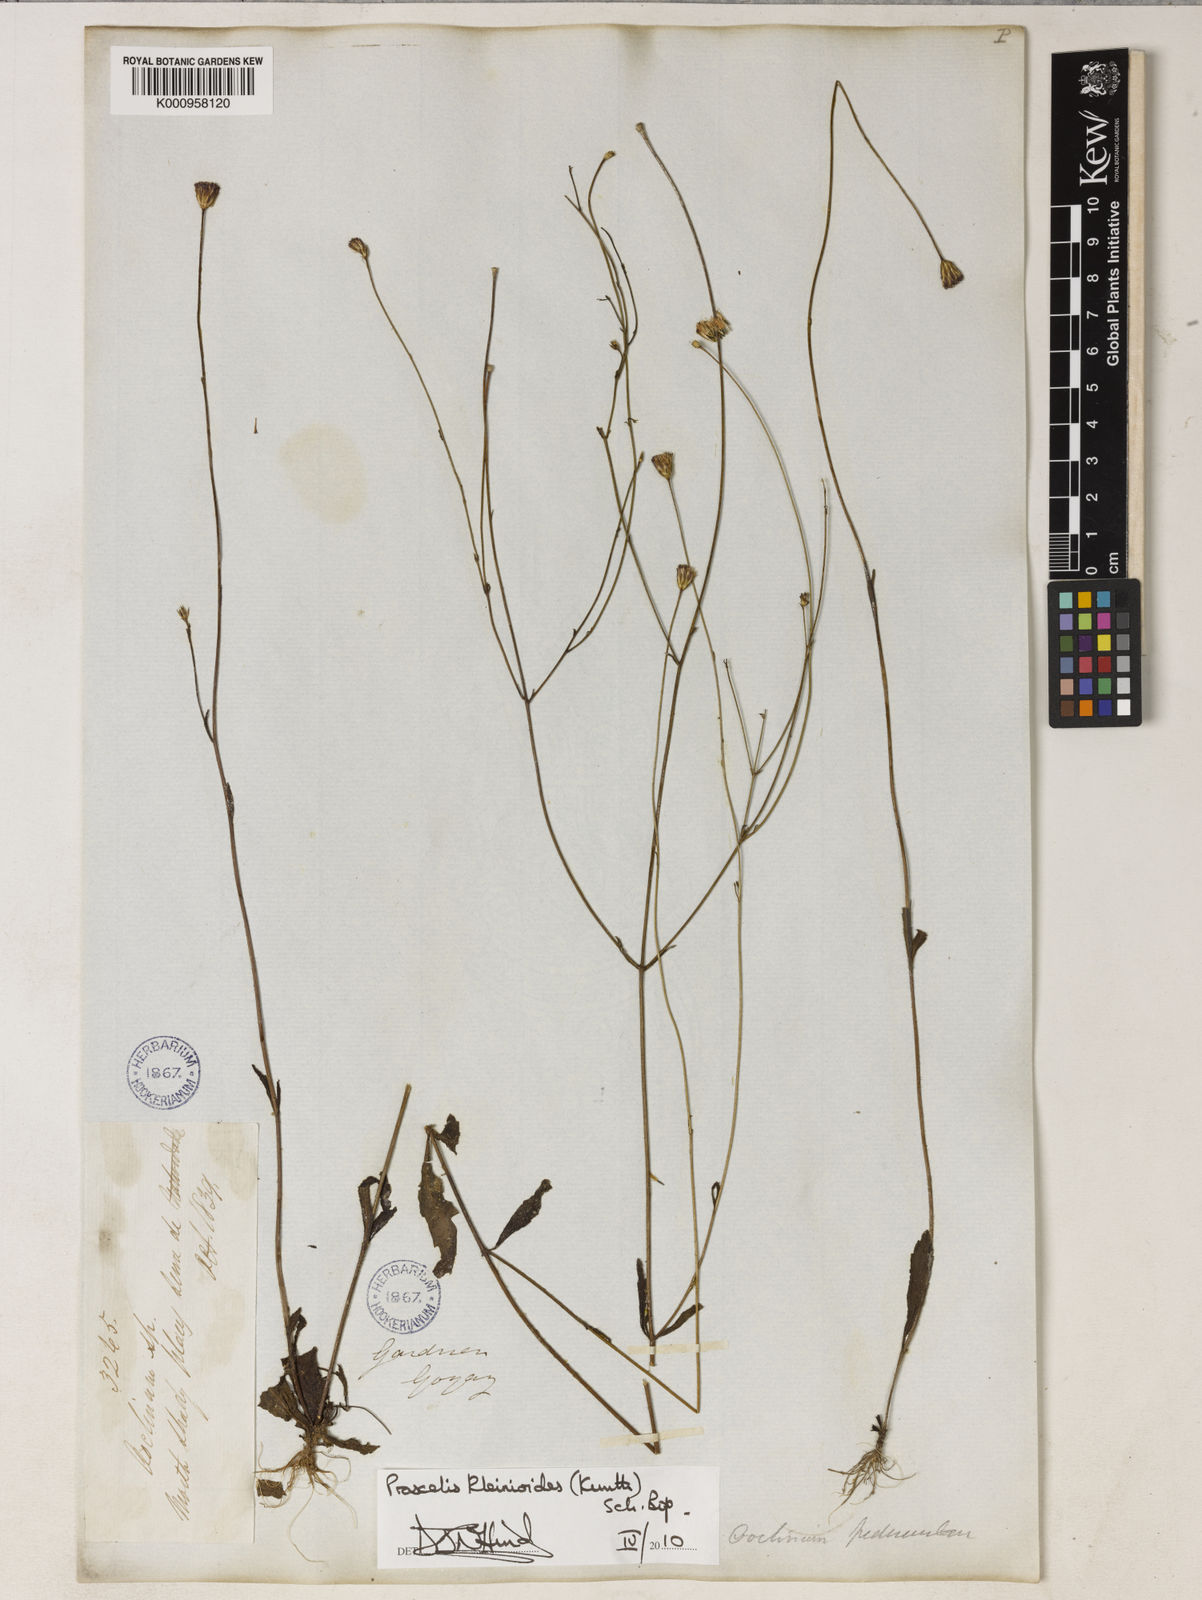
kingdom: Plantae
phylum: Tracheophyta
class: Magnoliopsida
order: Asterales
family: Asteraceae
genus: Praxelis
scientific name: Praxelis kleinioides
